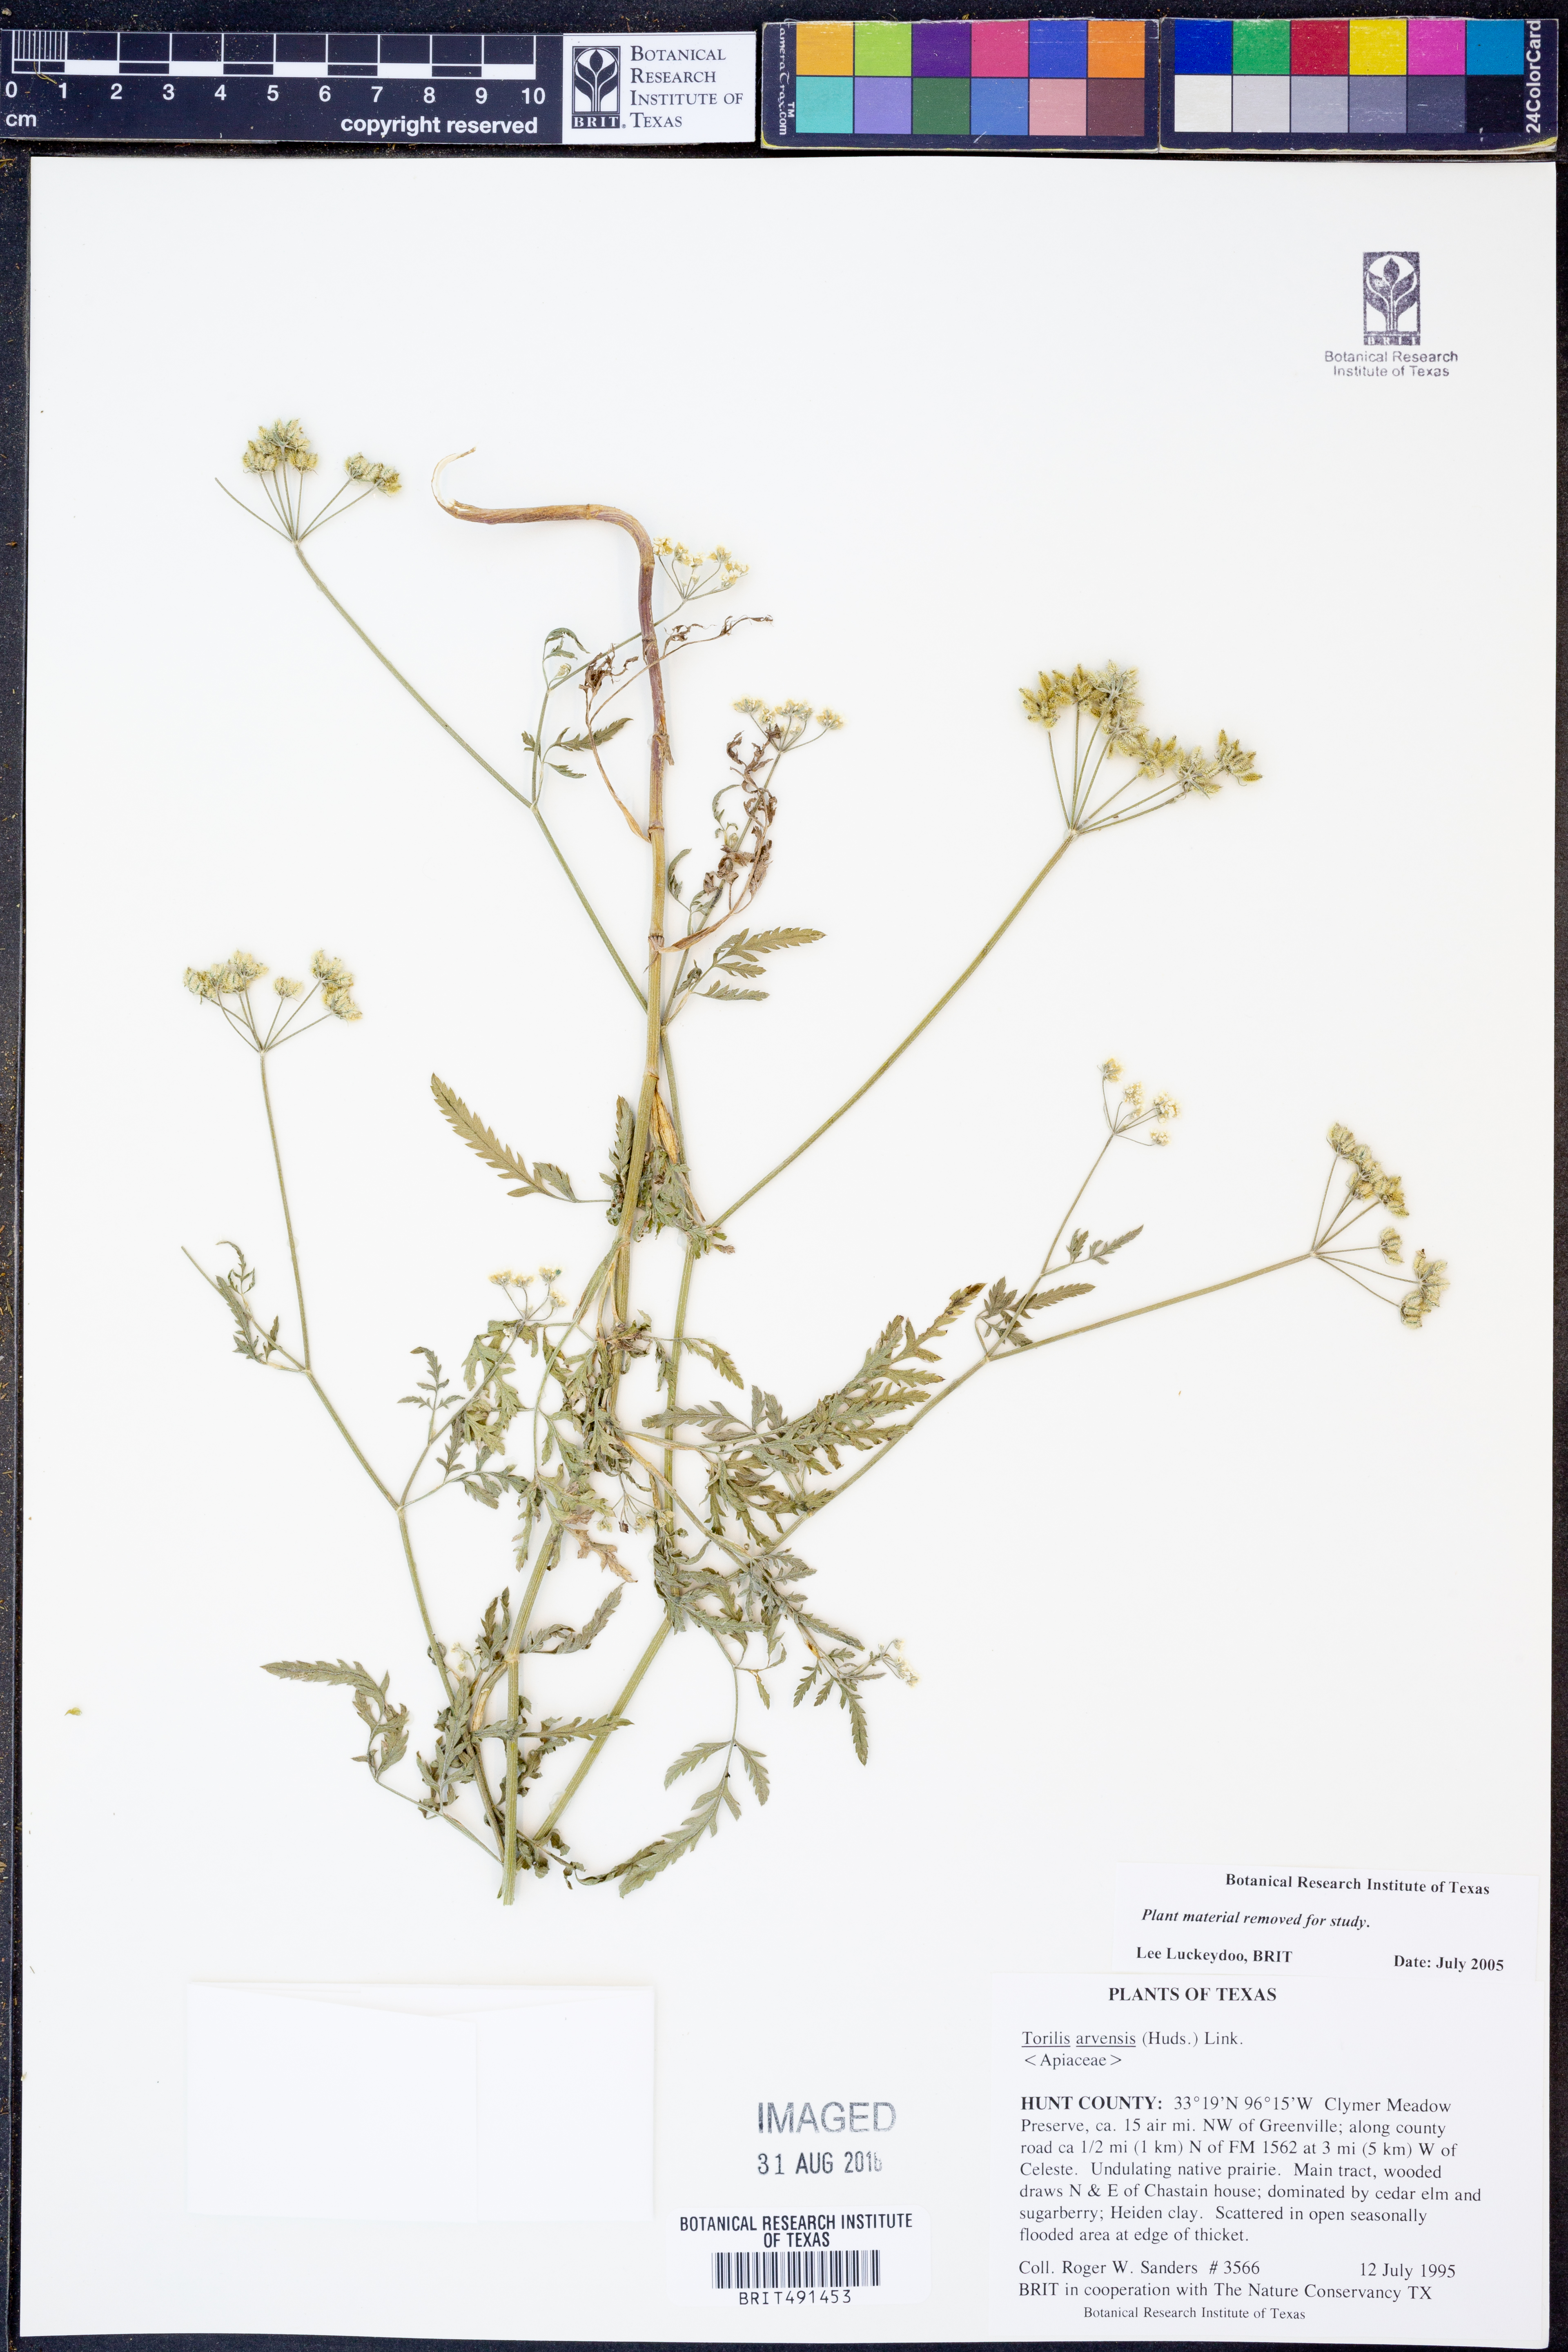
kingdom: Plantae
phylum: Tracheophyta
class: Magnoliopsida
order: Apiales
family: Apiaceae
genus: Torilis
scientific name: Torilis arvensis
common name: Spreading hedge-parsley
